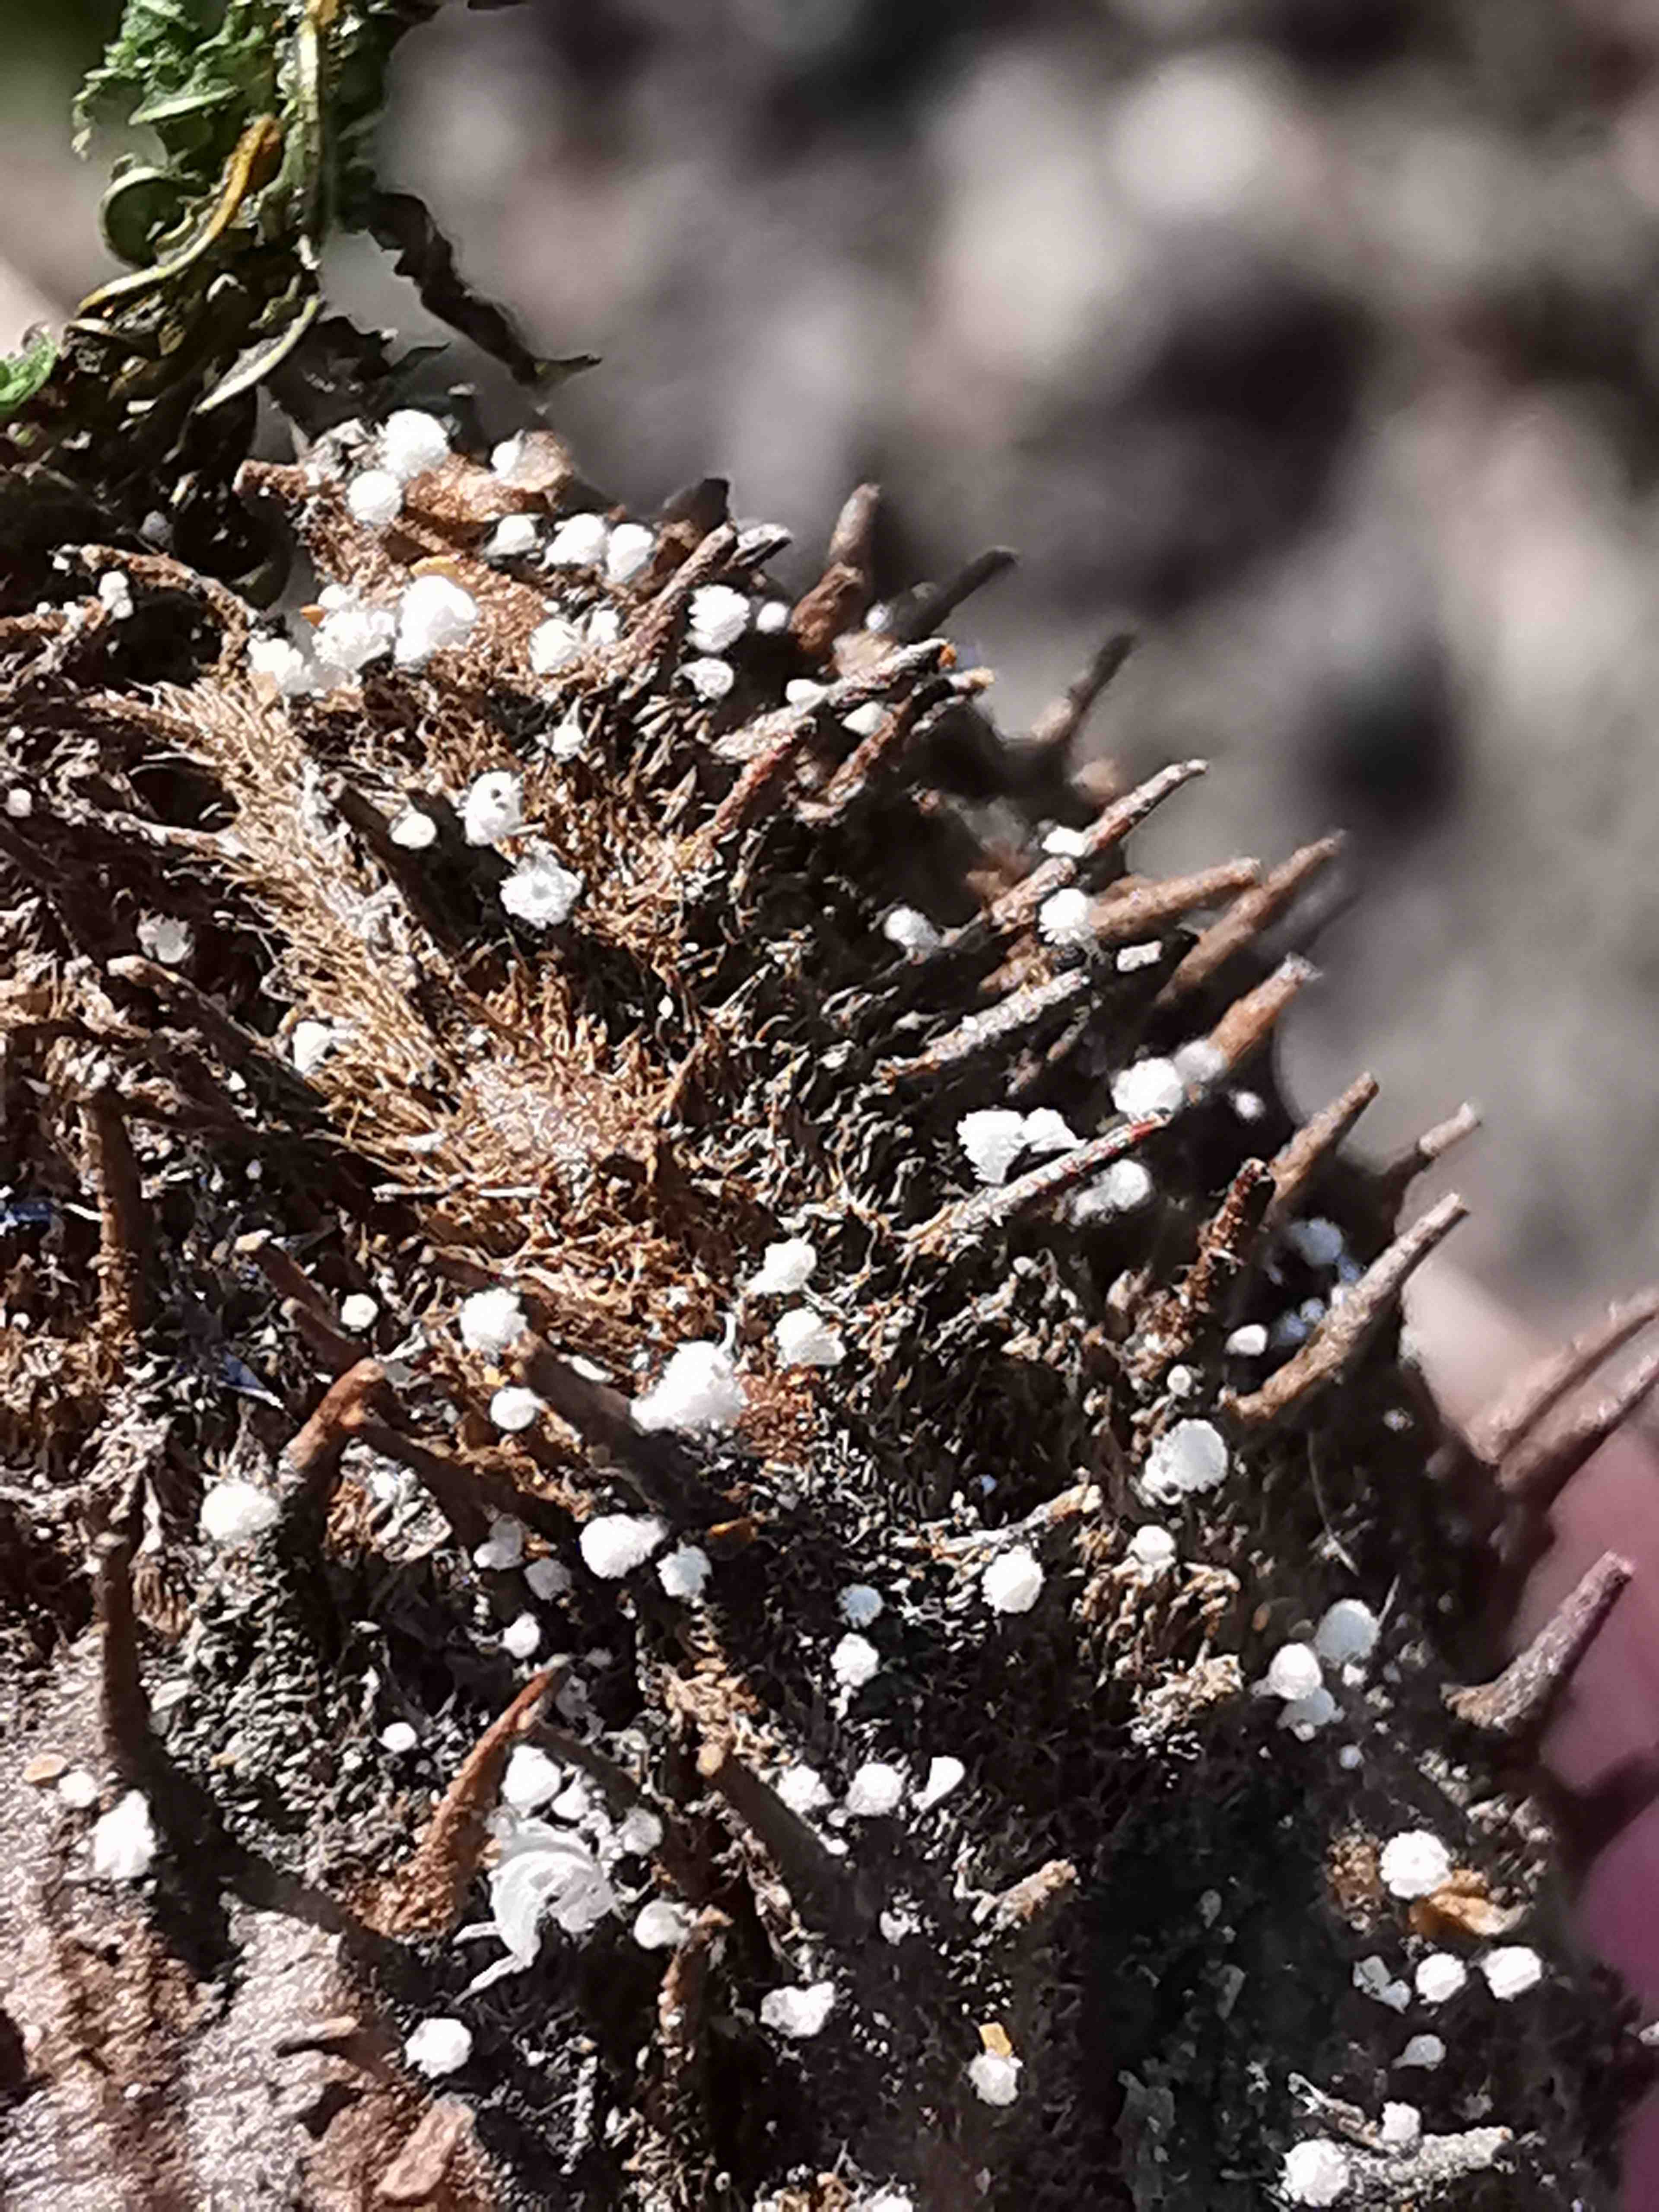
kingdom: Fungi
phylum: Ascomycota
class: Leotiomycetes
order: Helotiales
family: Lachnaceae
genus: Lachnum
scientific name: Lachnum virgineum
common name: jomfru-frynseskive
